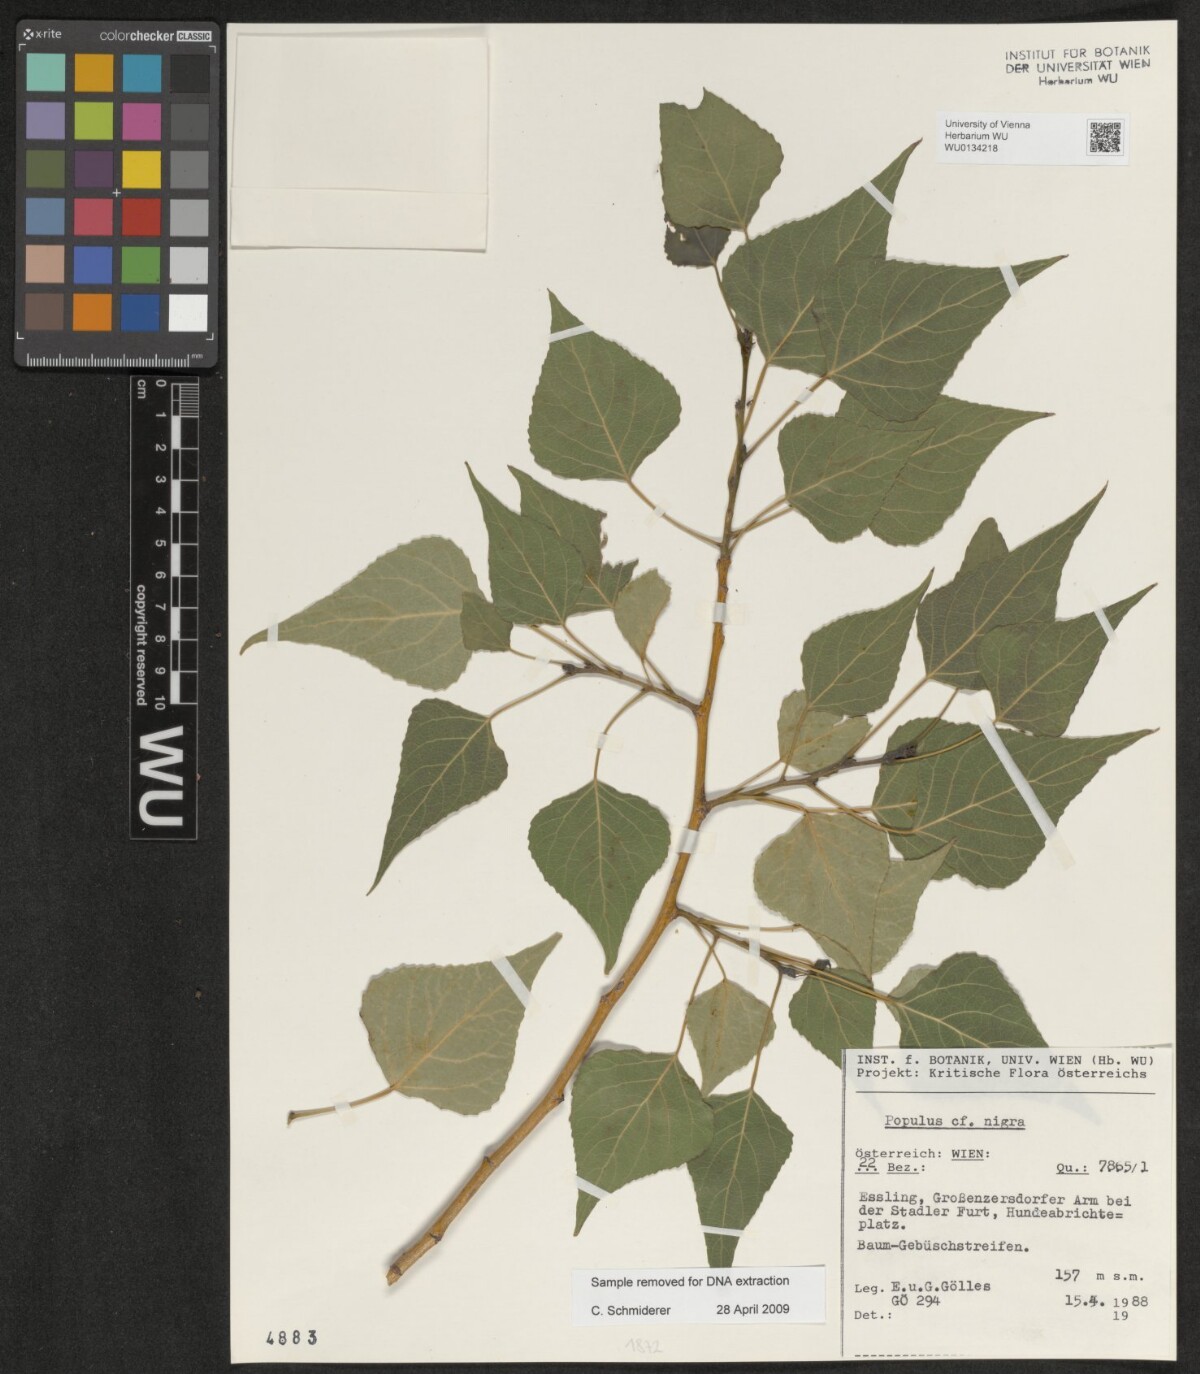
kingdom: Plantae
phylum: Tracheophyta
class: Magnoliopsida
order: Malpighiales
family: Salicaceae
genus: Populus
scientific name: Populus nigra
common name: Black poplar
